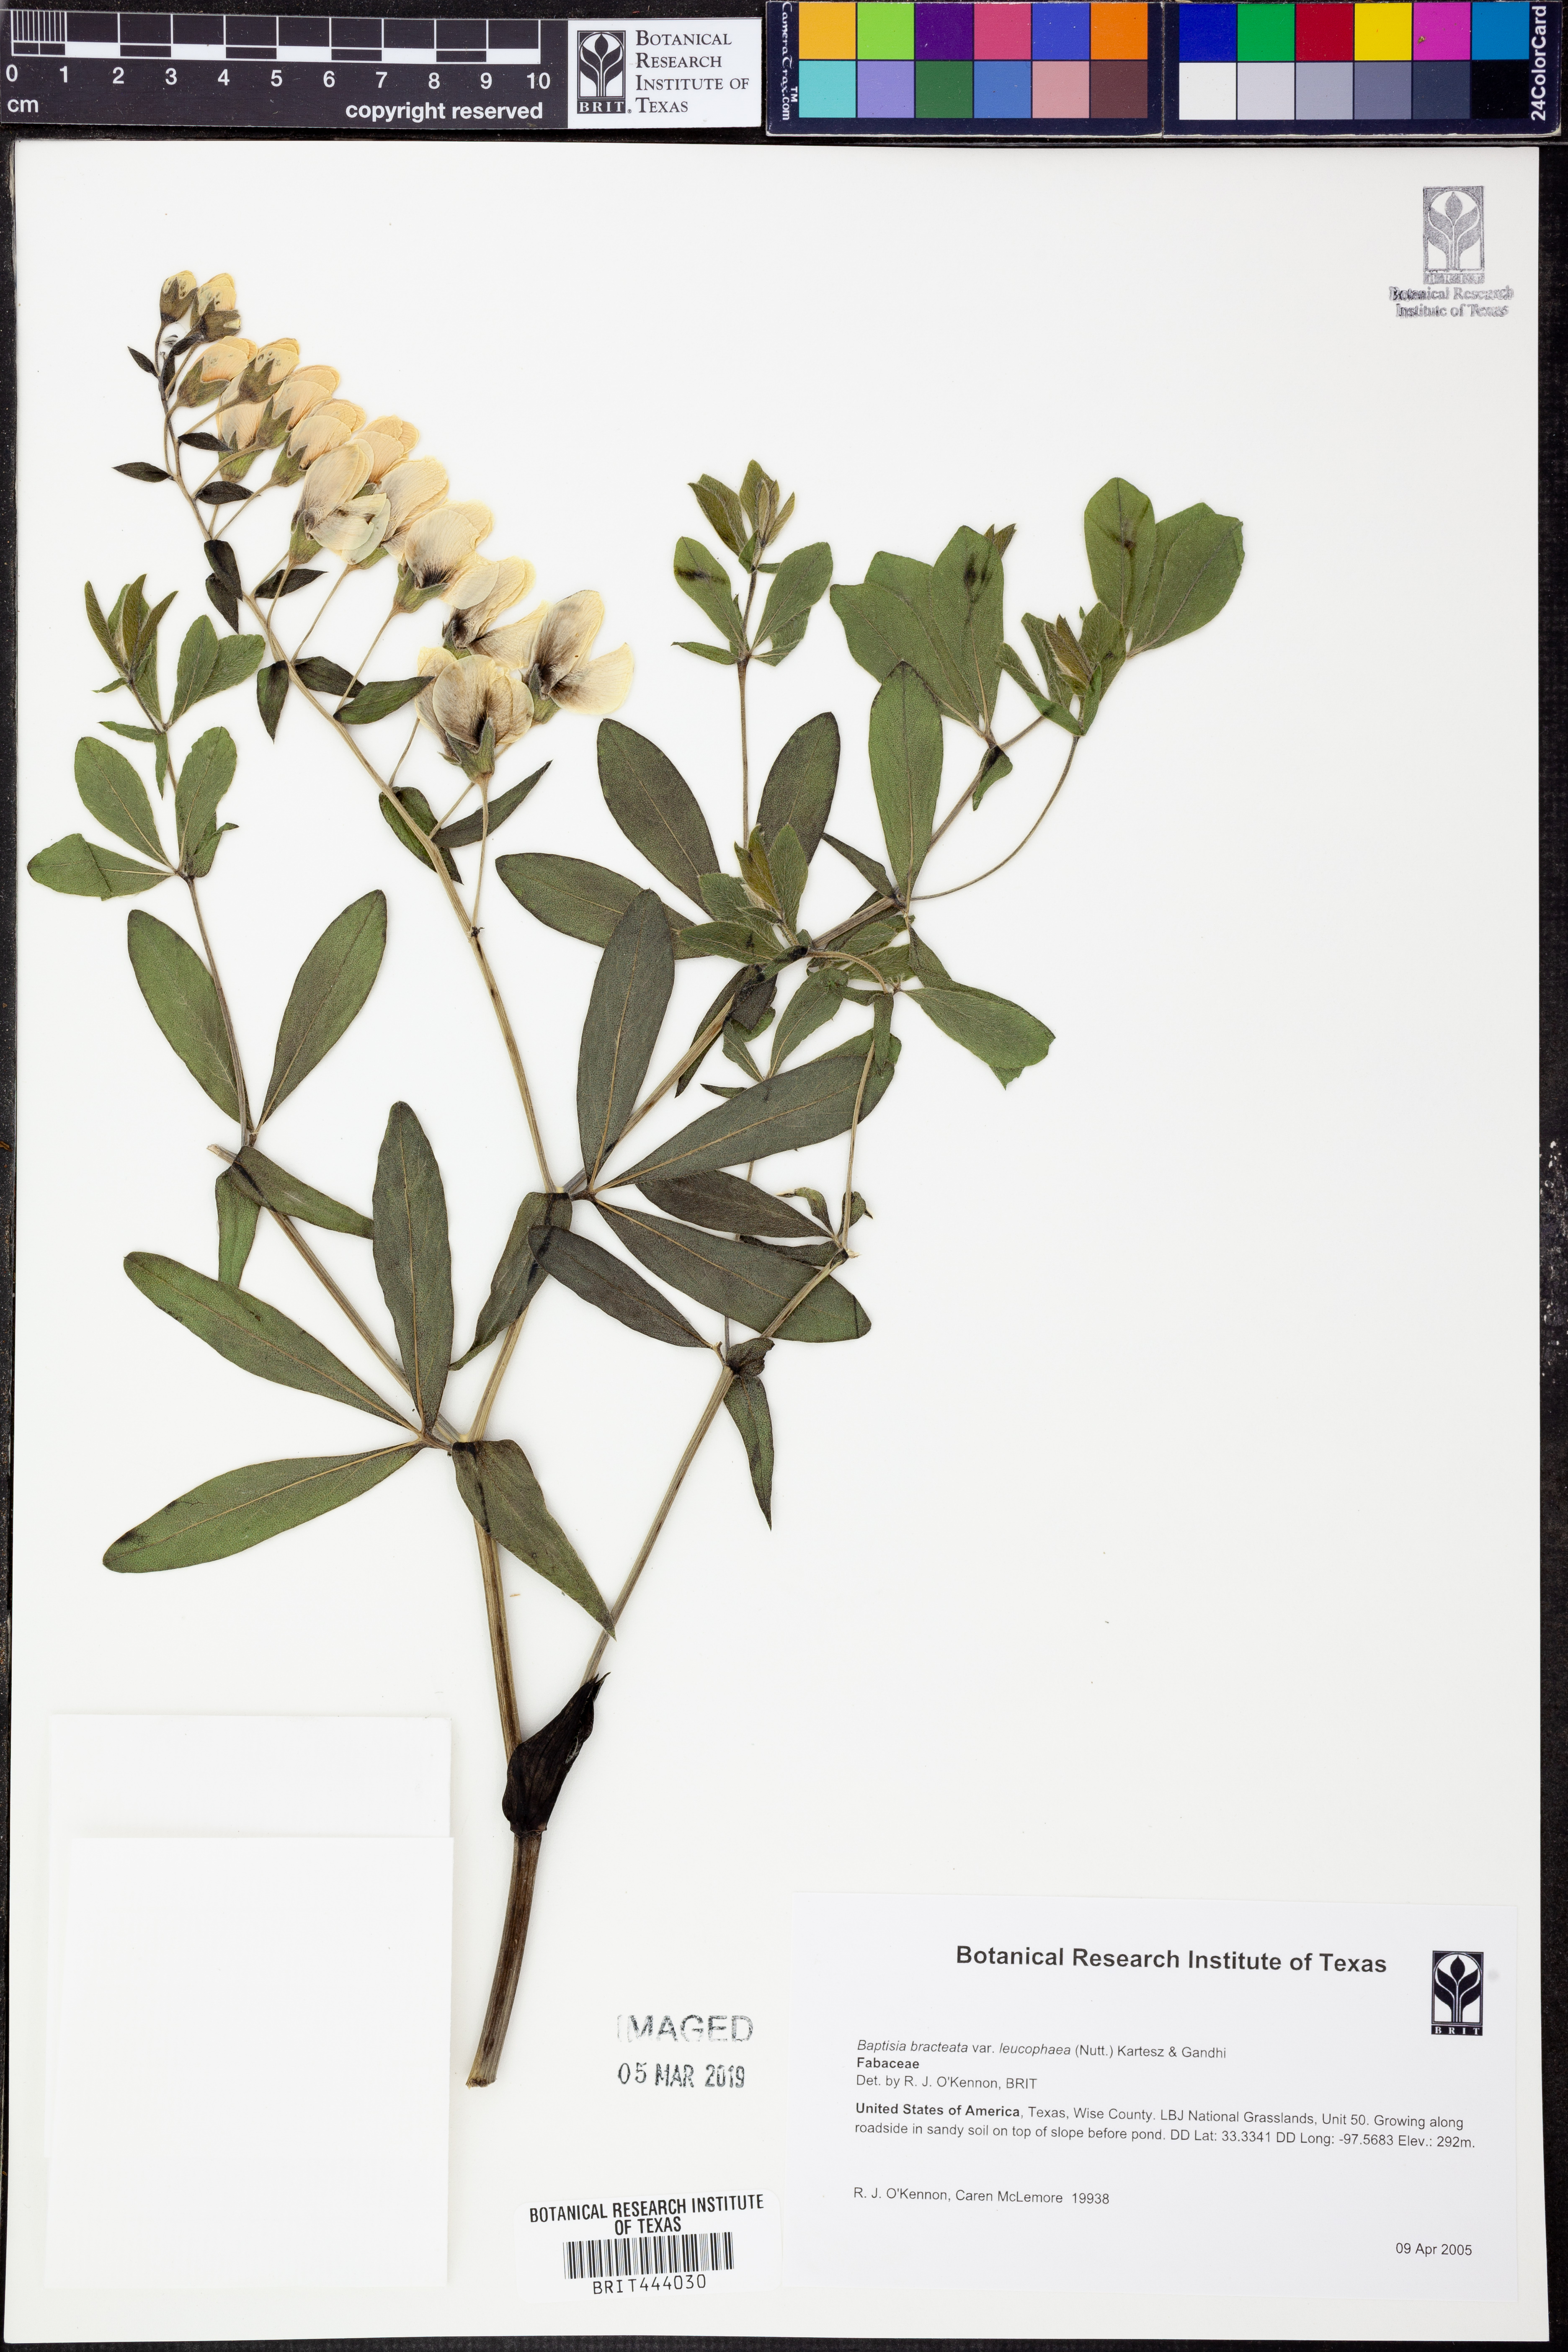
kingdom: Plantae
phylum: Tracheophyta
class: Magnoliopsida
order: Fabales
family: Fabaceae
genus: Baptisia
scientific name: Baptisia bracteata
